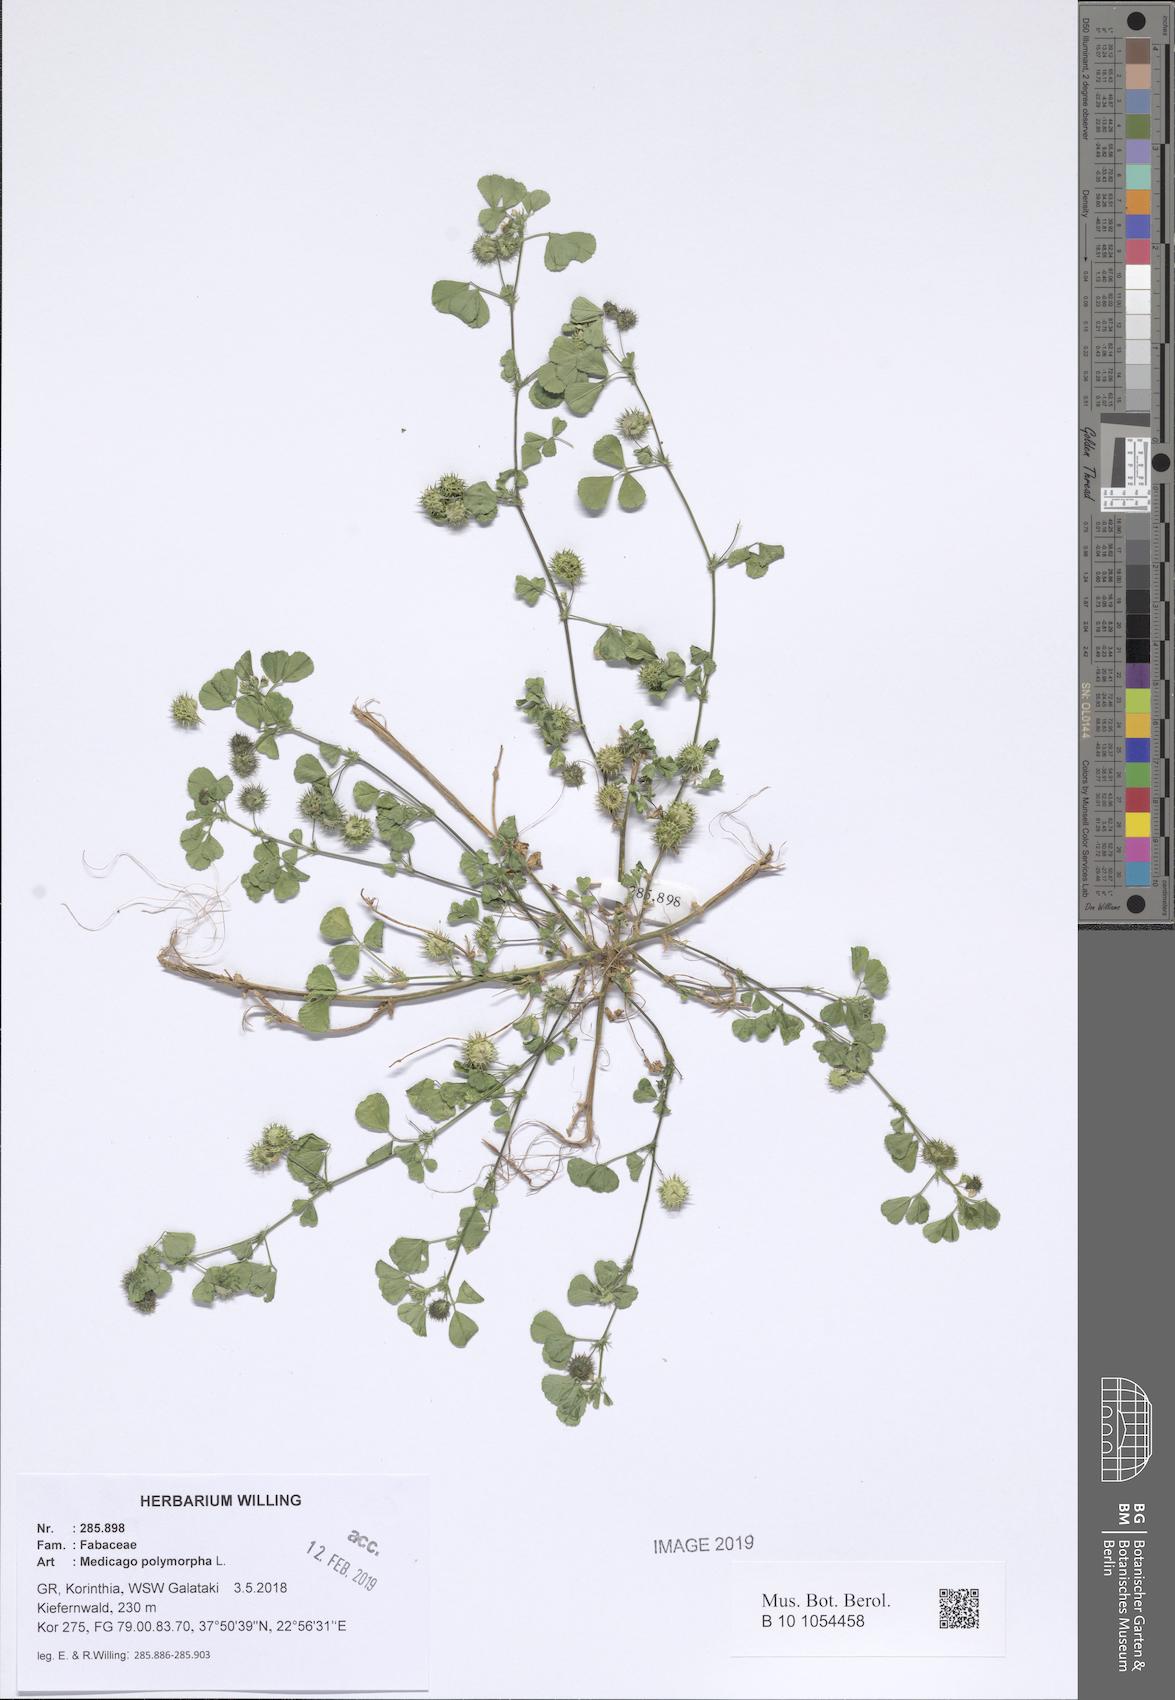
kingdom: Plantae
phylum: Tracheophyta
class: Magnoliopsida
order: Fabales
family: Fabaceae
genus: Medicago
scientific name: Medicago polymorpha
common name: Burclover
